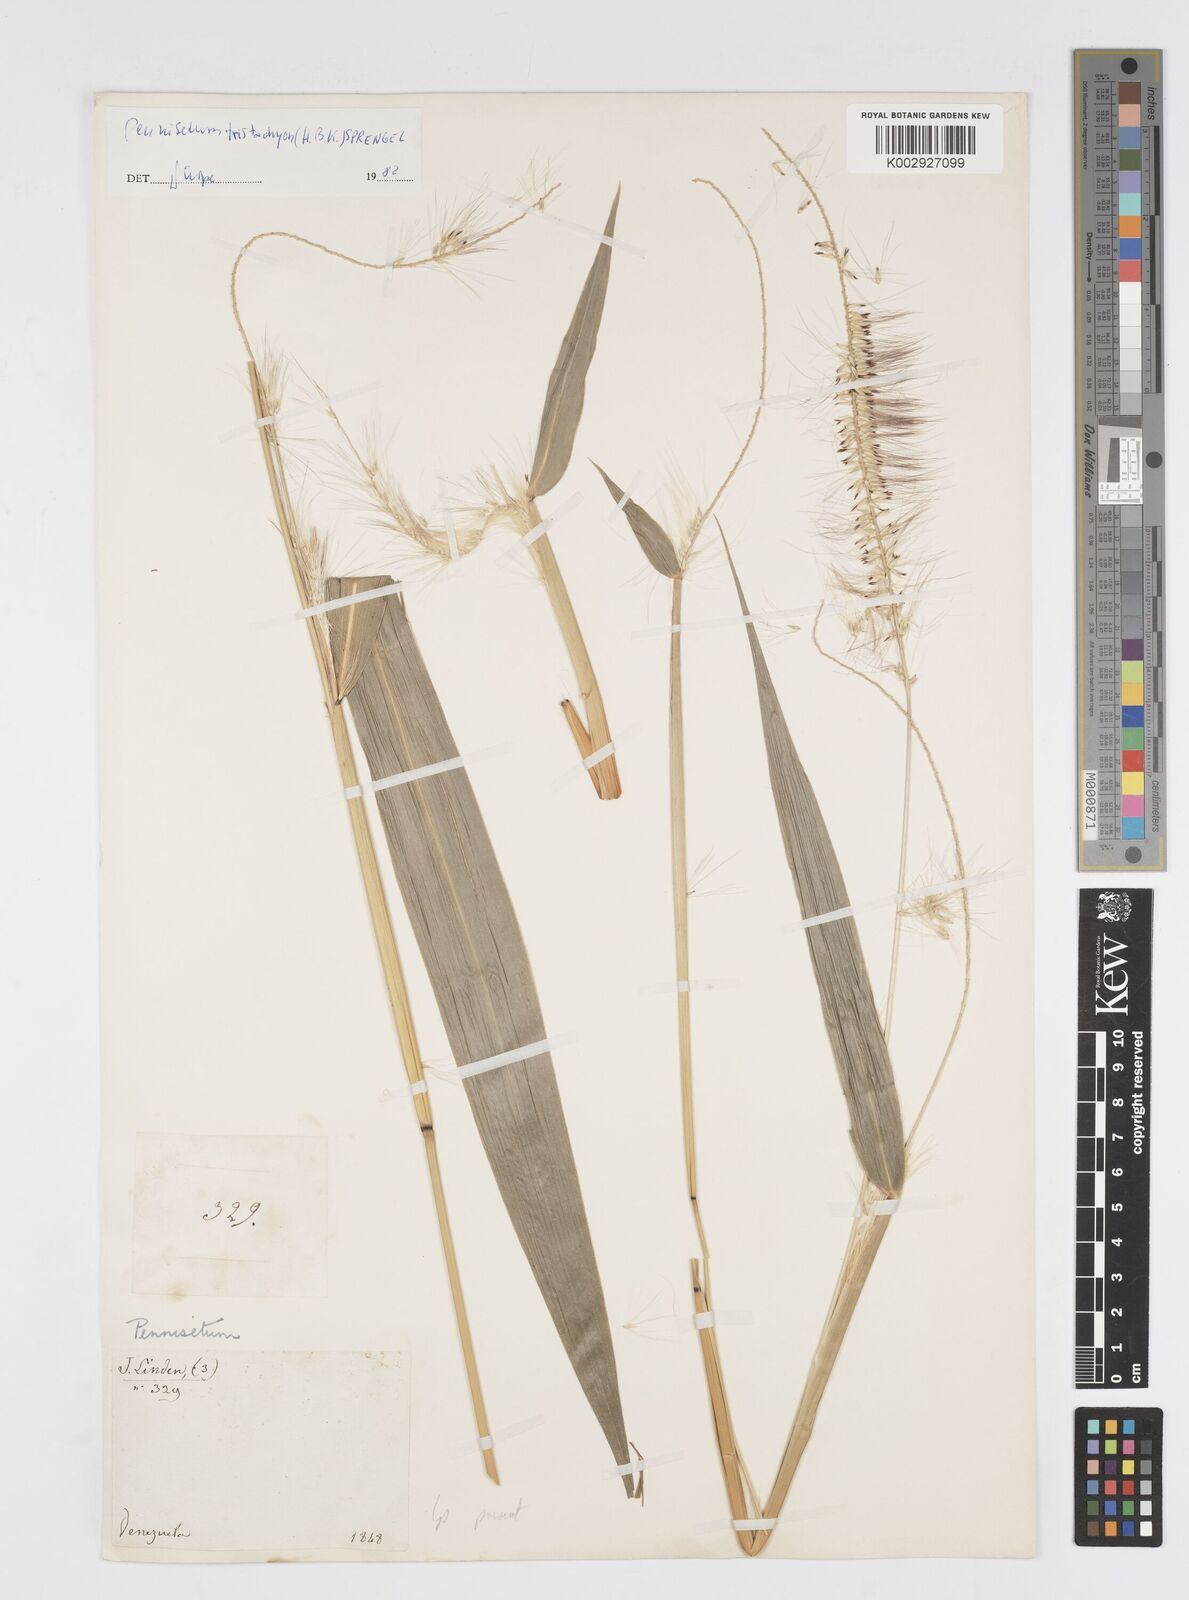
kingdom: Plantae
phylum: Tracheophyta
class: Liliopsida
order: Poales
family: Poaceae
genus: Cenchrus
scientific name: Cenchrus tristachyus
